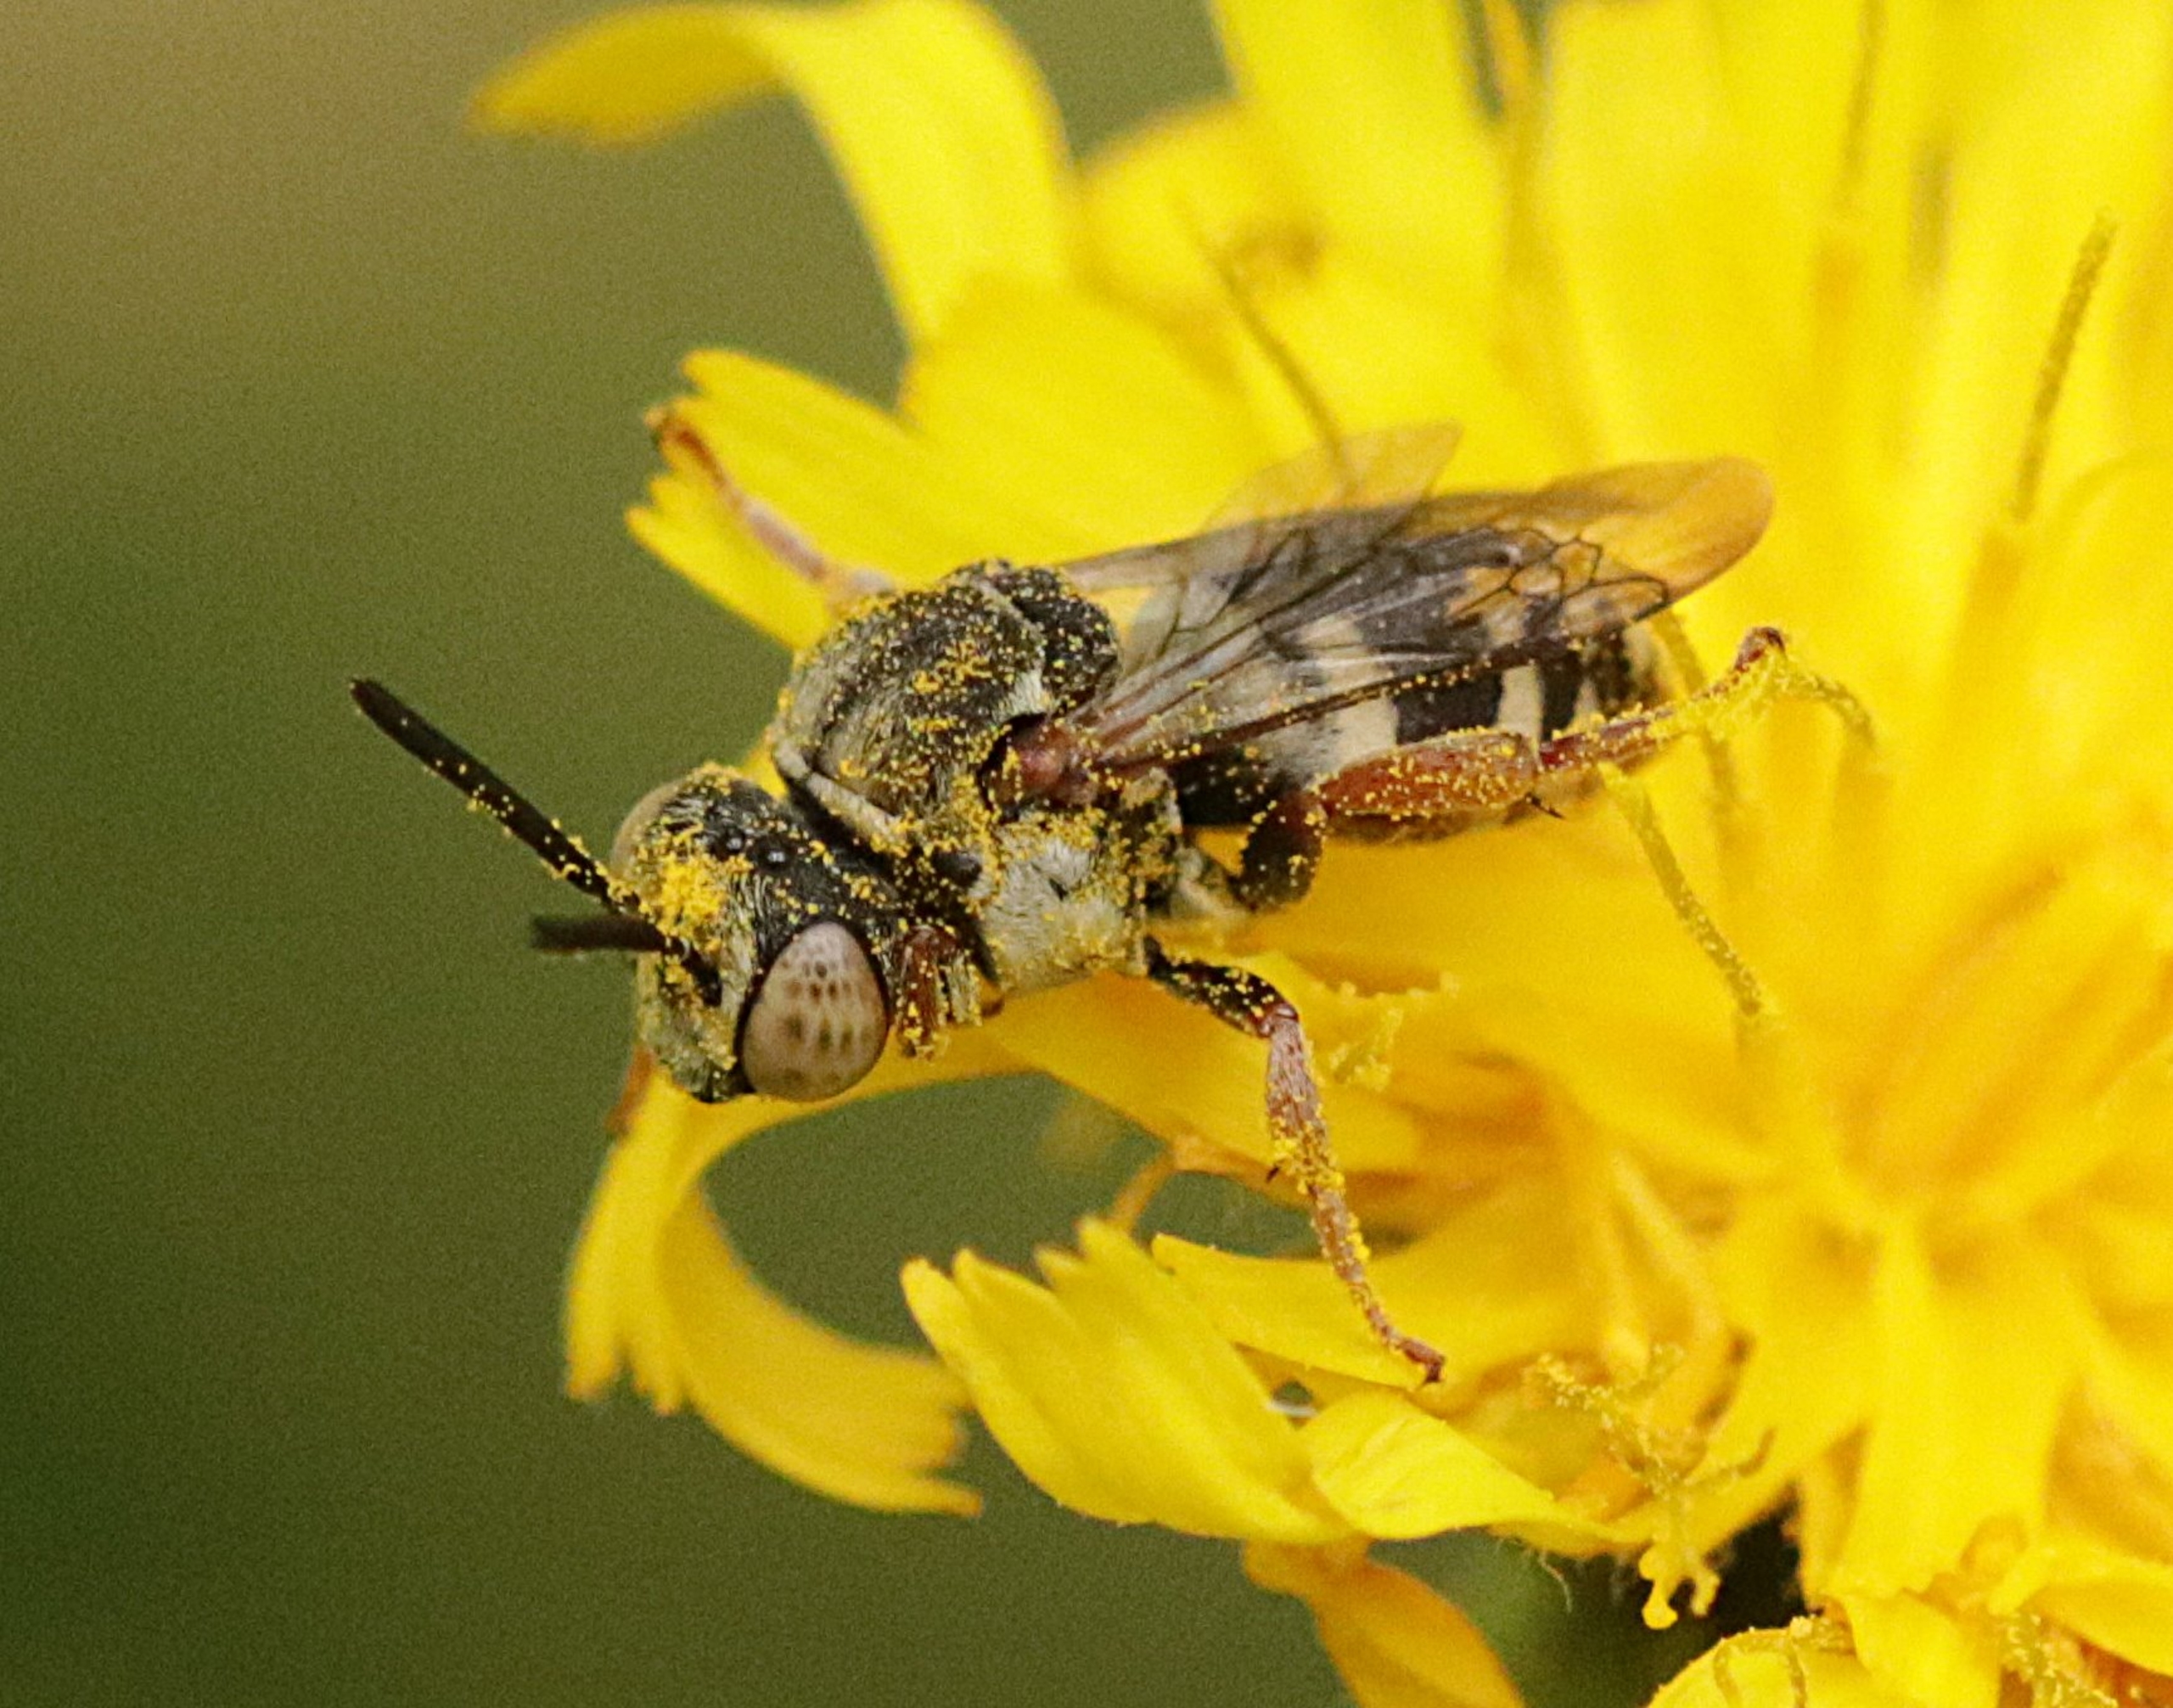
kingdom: Animalia
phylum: Arthropoda
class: Insecta
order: Hymenoptera
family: Apidae
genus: Epeolus
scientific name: Epeolus
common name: Filtbier
